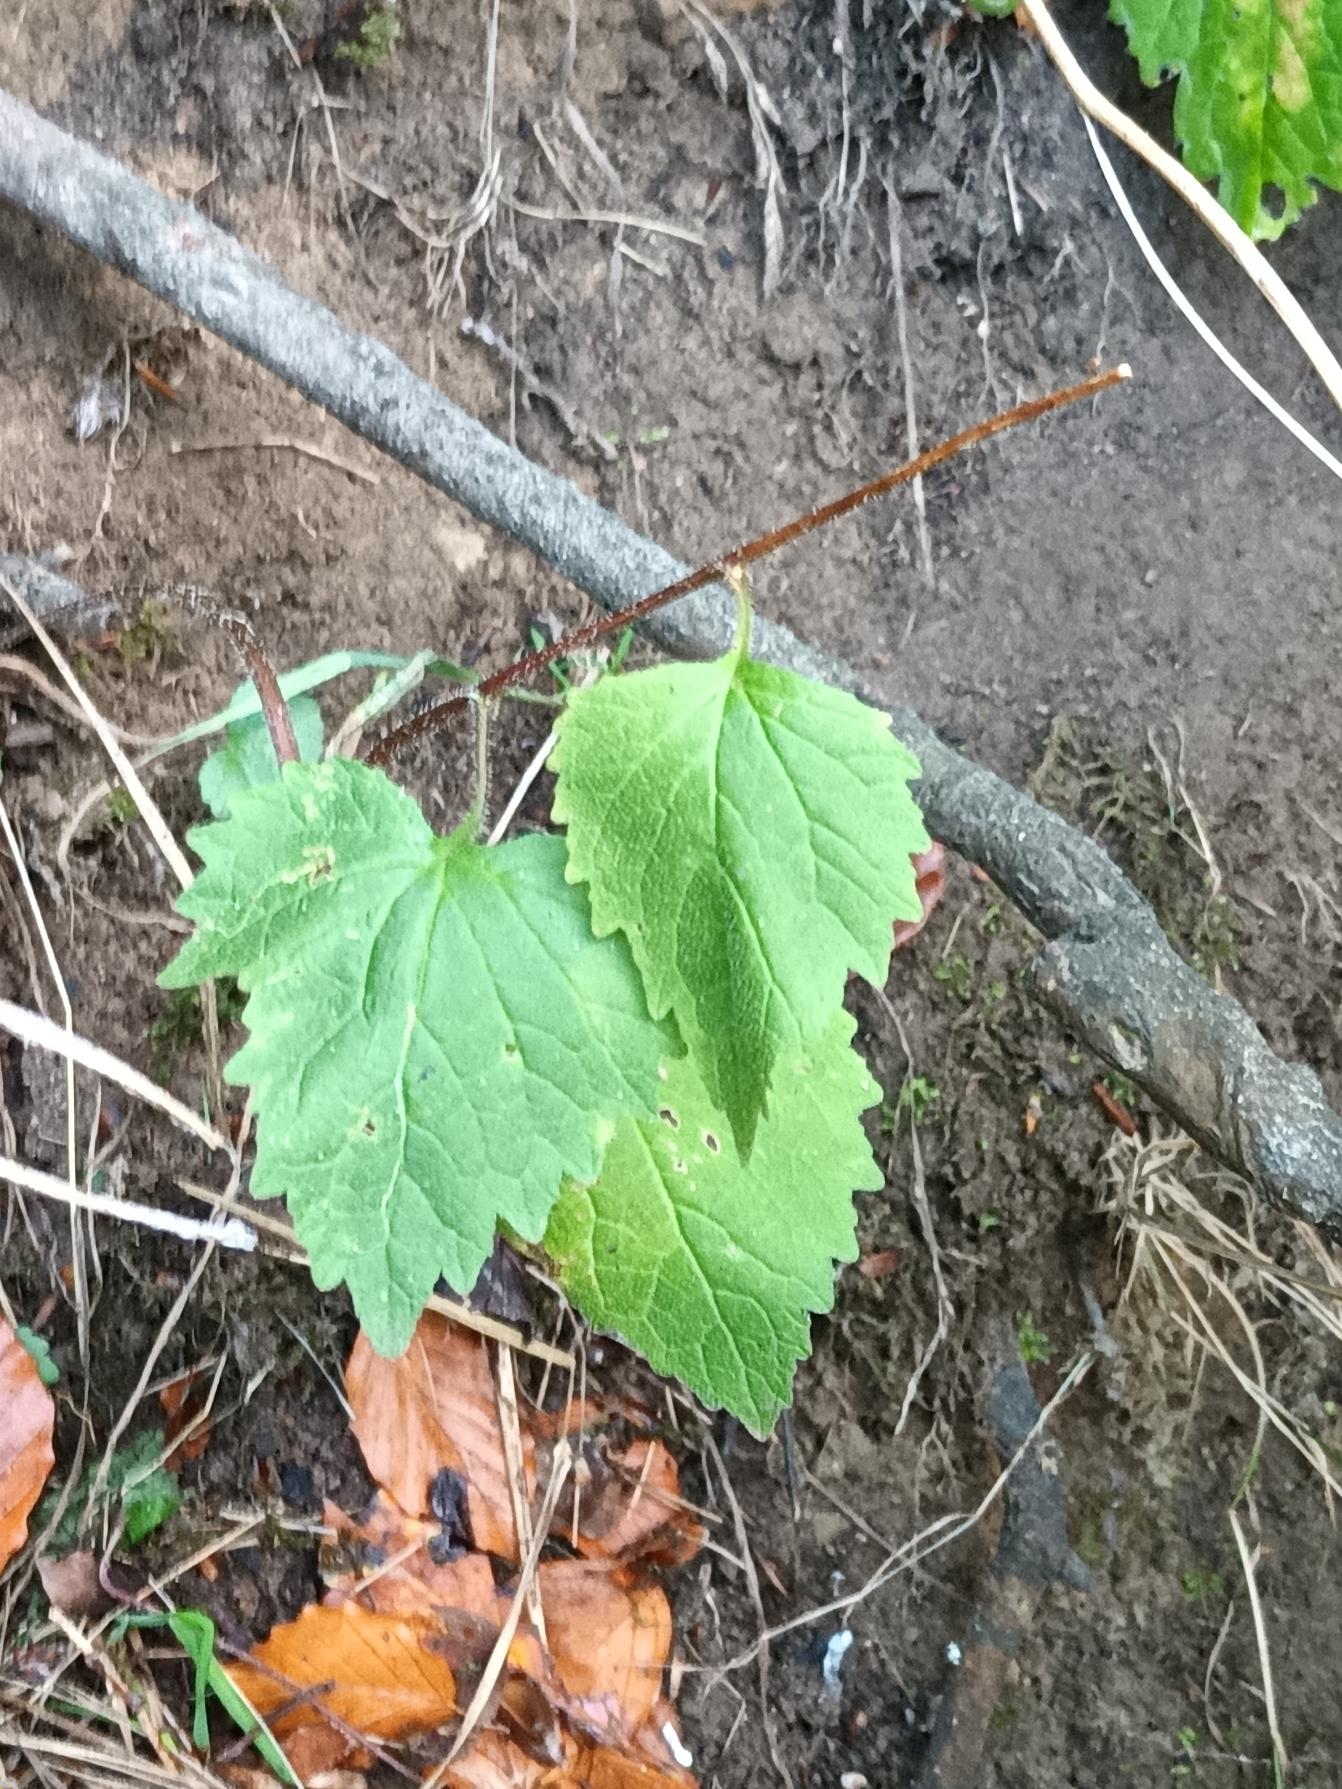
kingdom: Plantae
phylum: Tracheophyta
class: Magnoliopsida
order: Asterales
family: Campanulaceae
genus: Campanula
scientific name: Campanula trachelium
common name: Nælde-klokke
